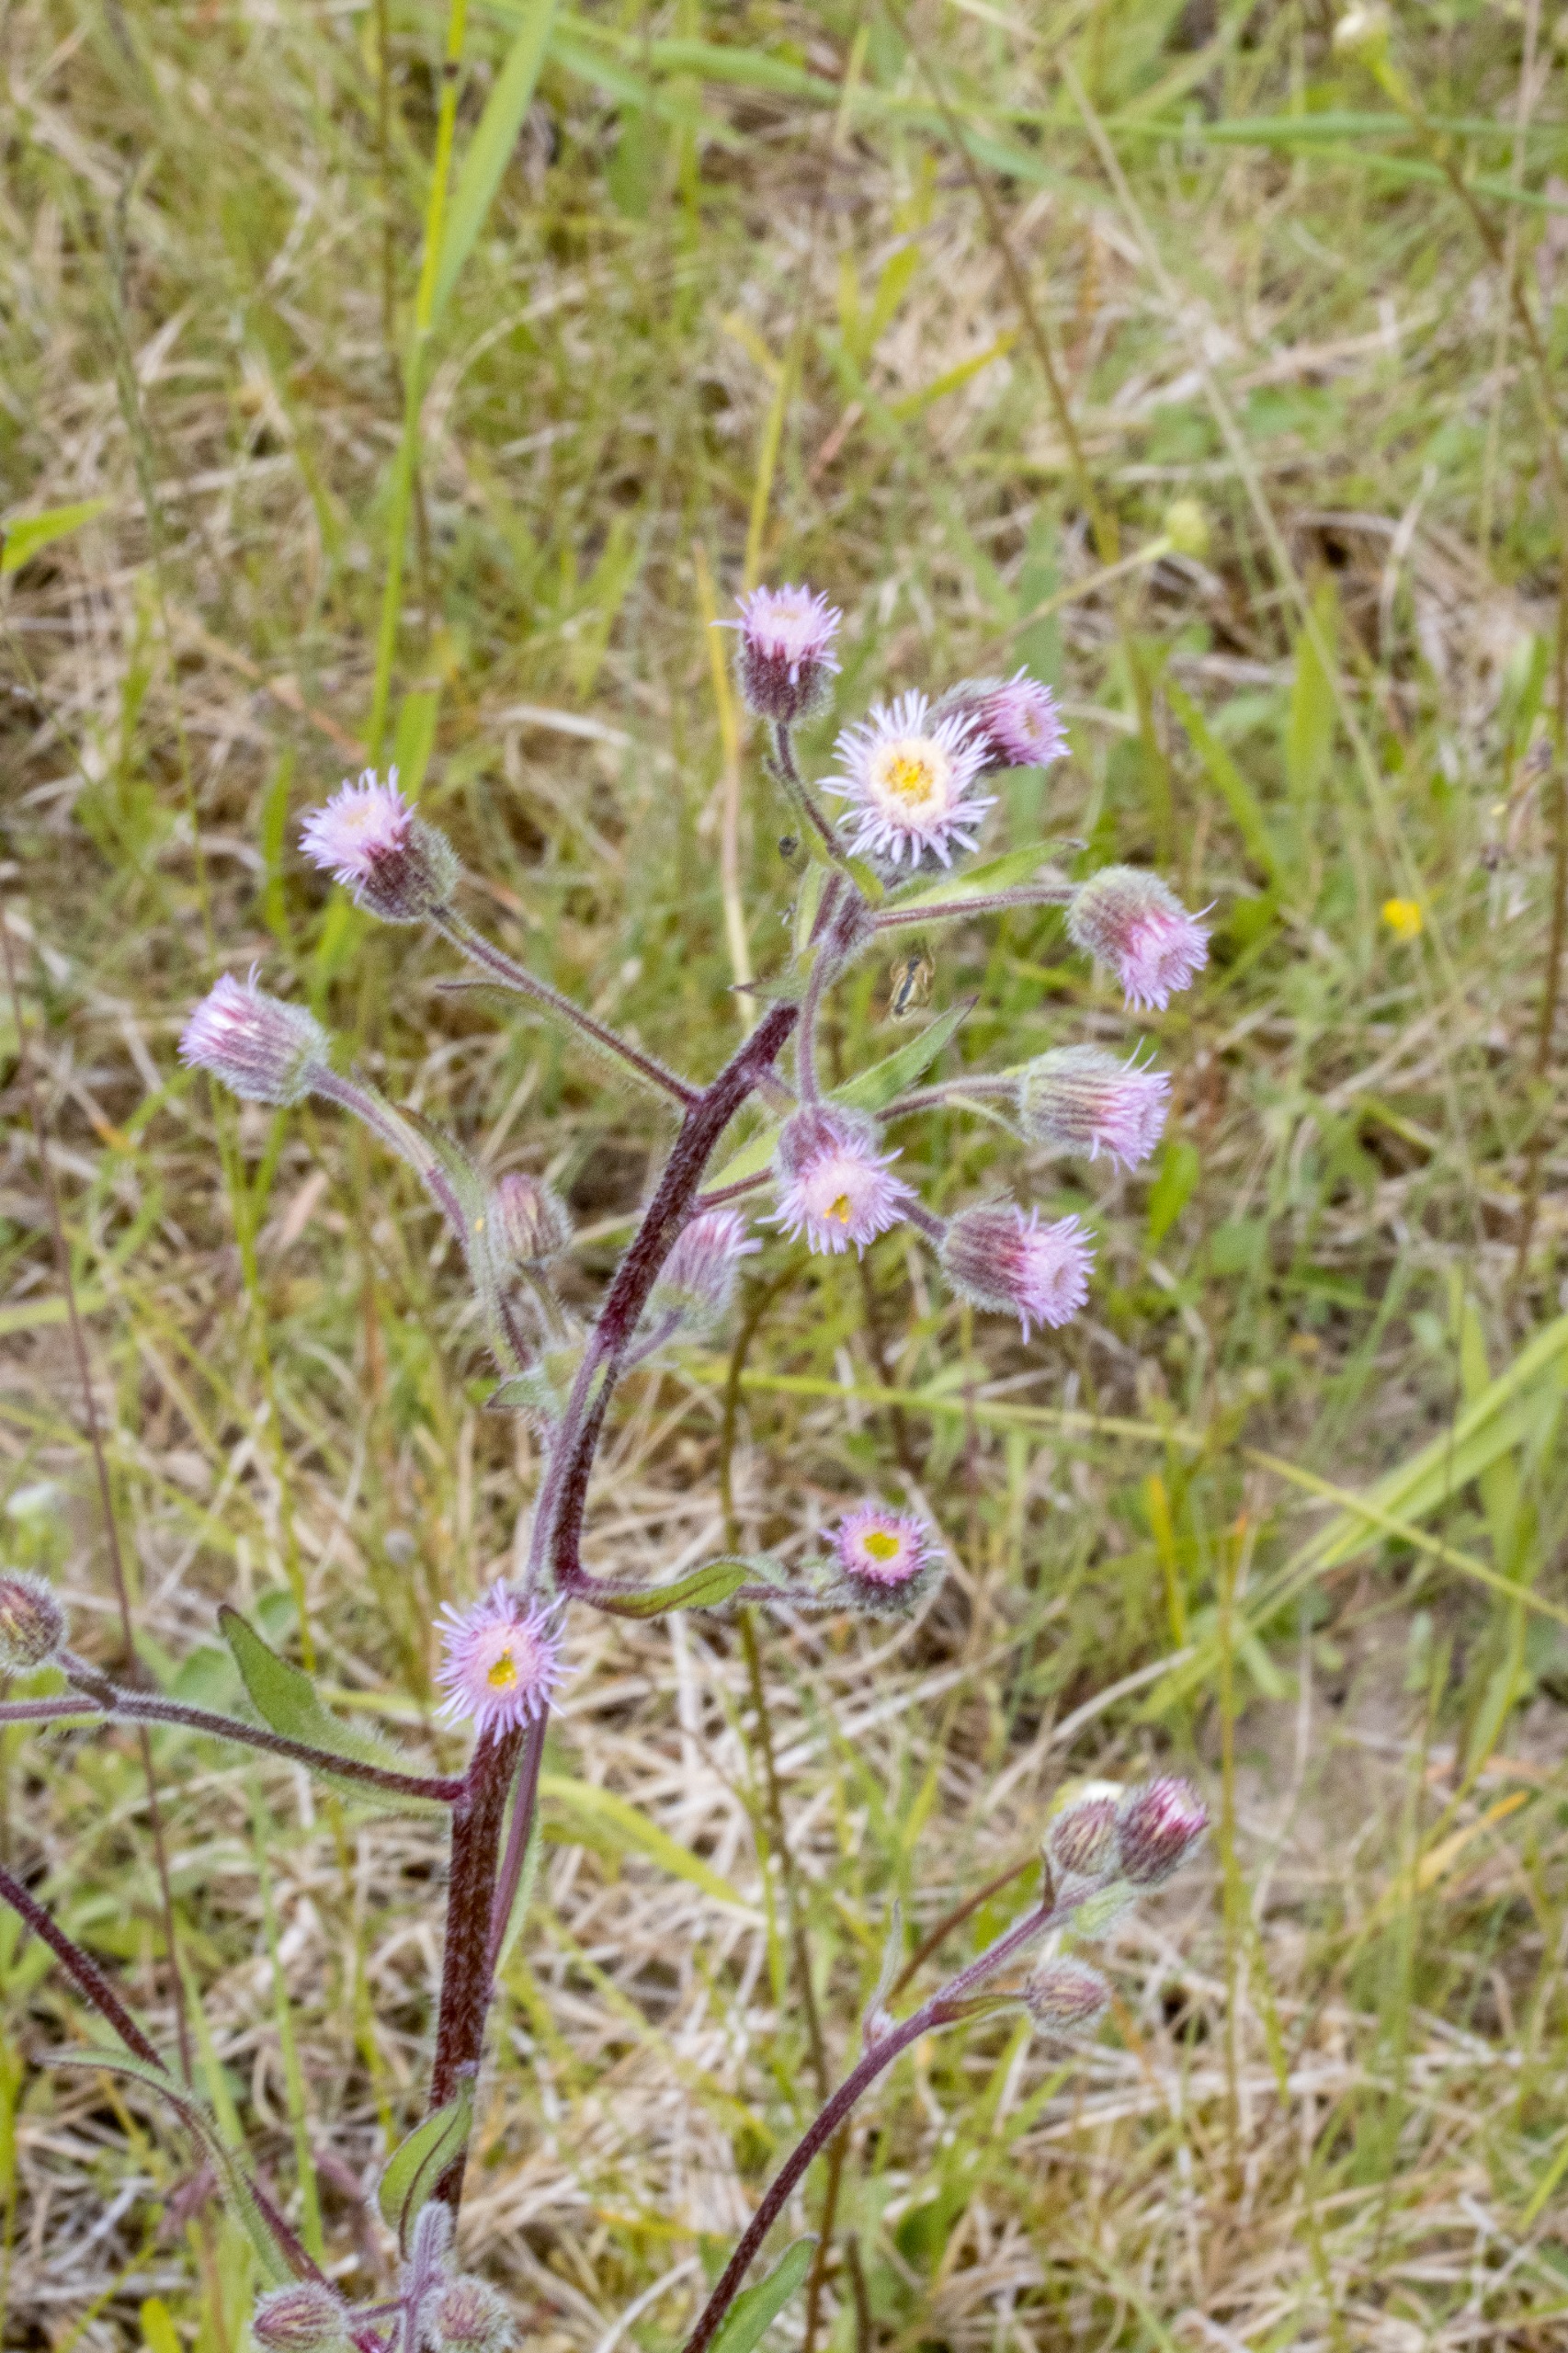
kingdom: Plantae
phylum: Tracheophyta
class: Magnoliopsida
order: Asterales
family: Asteraceae
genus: Erigeron
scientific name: Erigeron acris
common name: Bitter bakkestjerne
